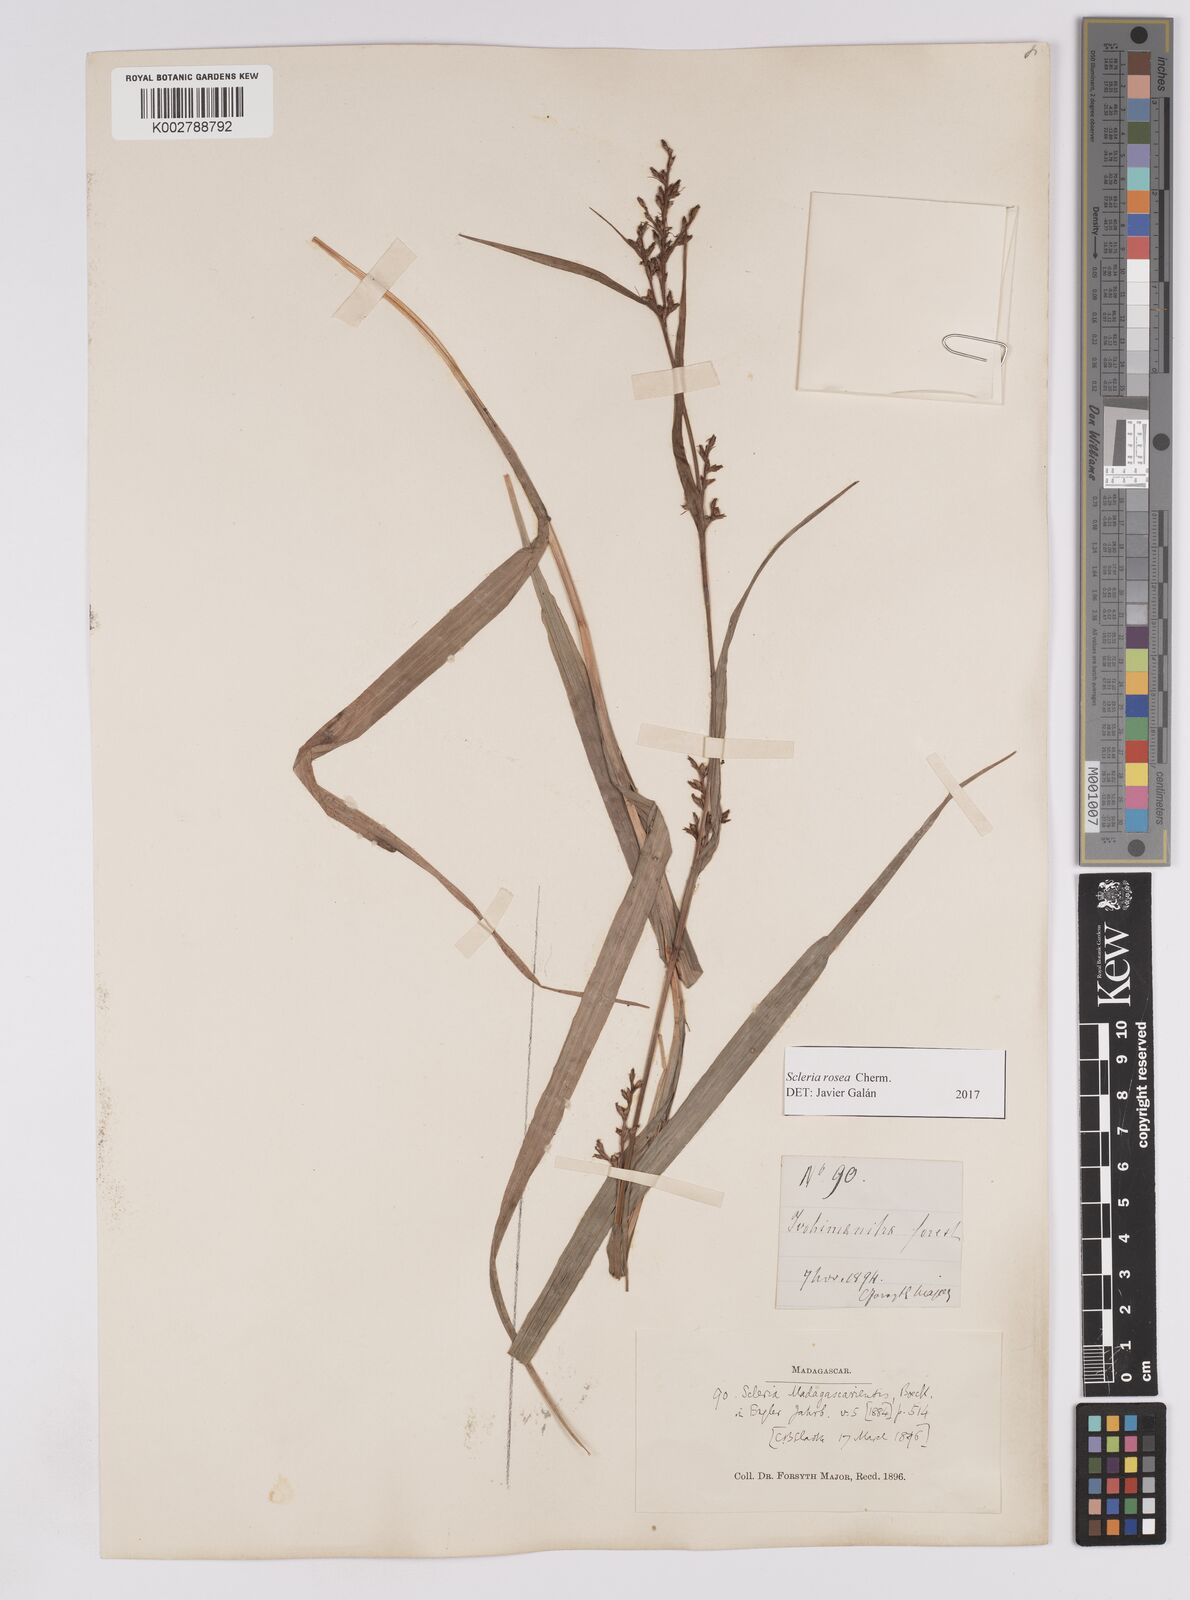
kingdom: Plantae
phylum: Tracheophyta
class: Liliopsida
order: Poales
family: Cyperaceae
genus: Scleria
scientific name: Scleria trialata
